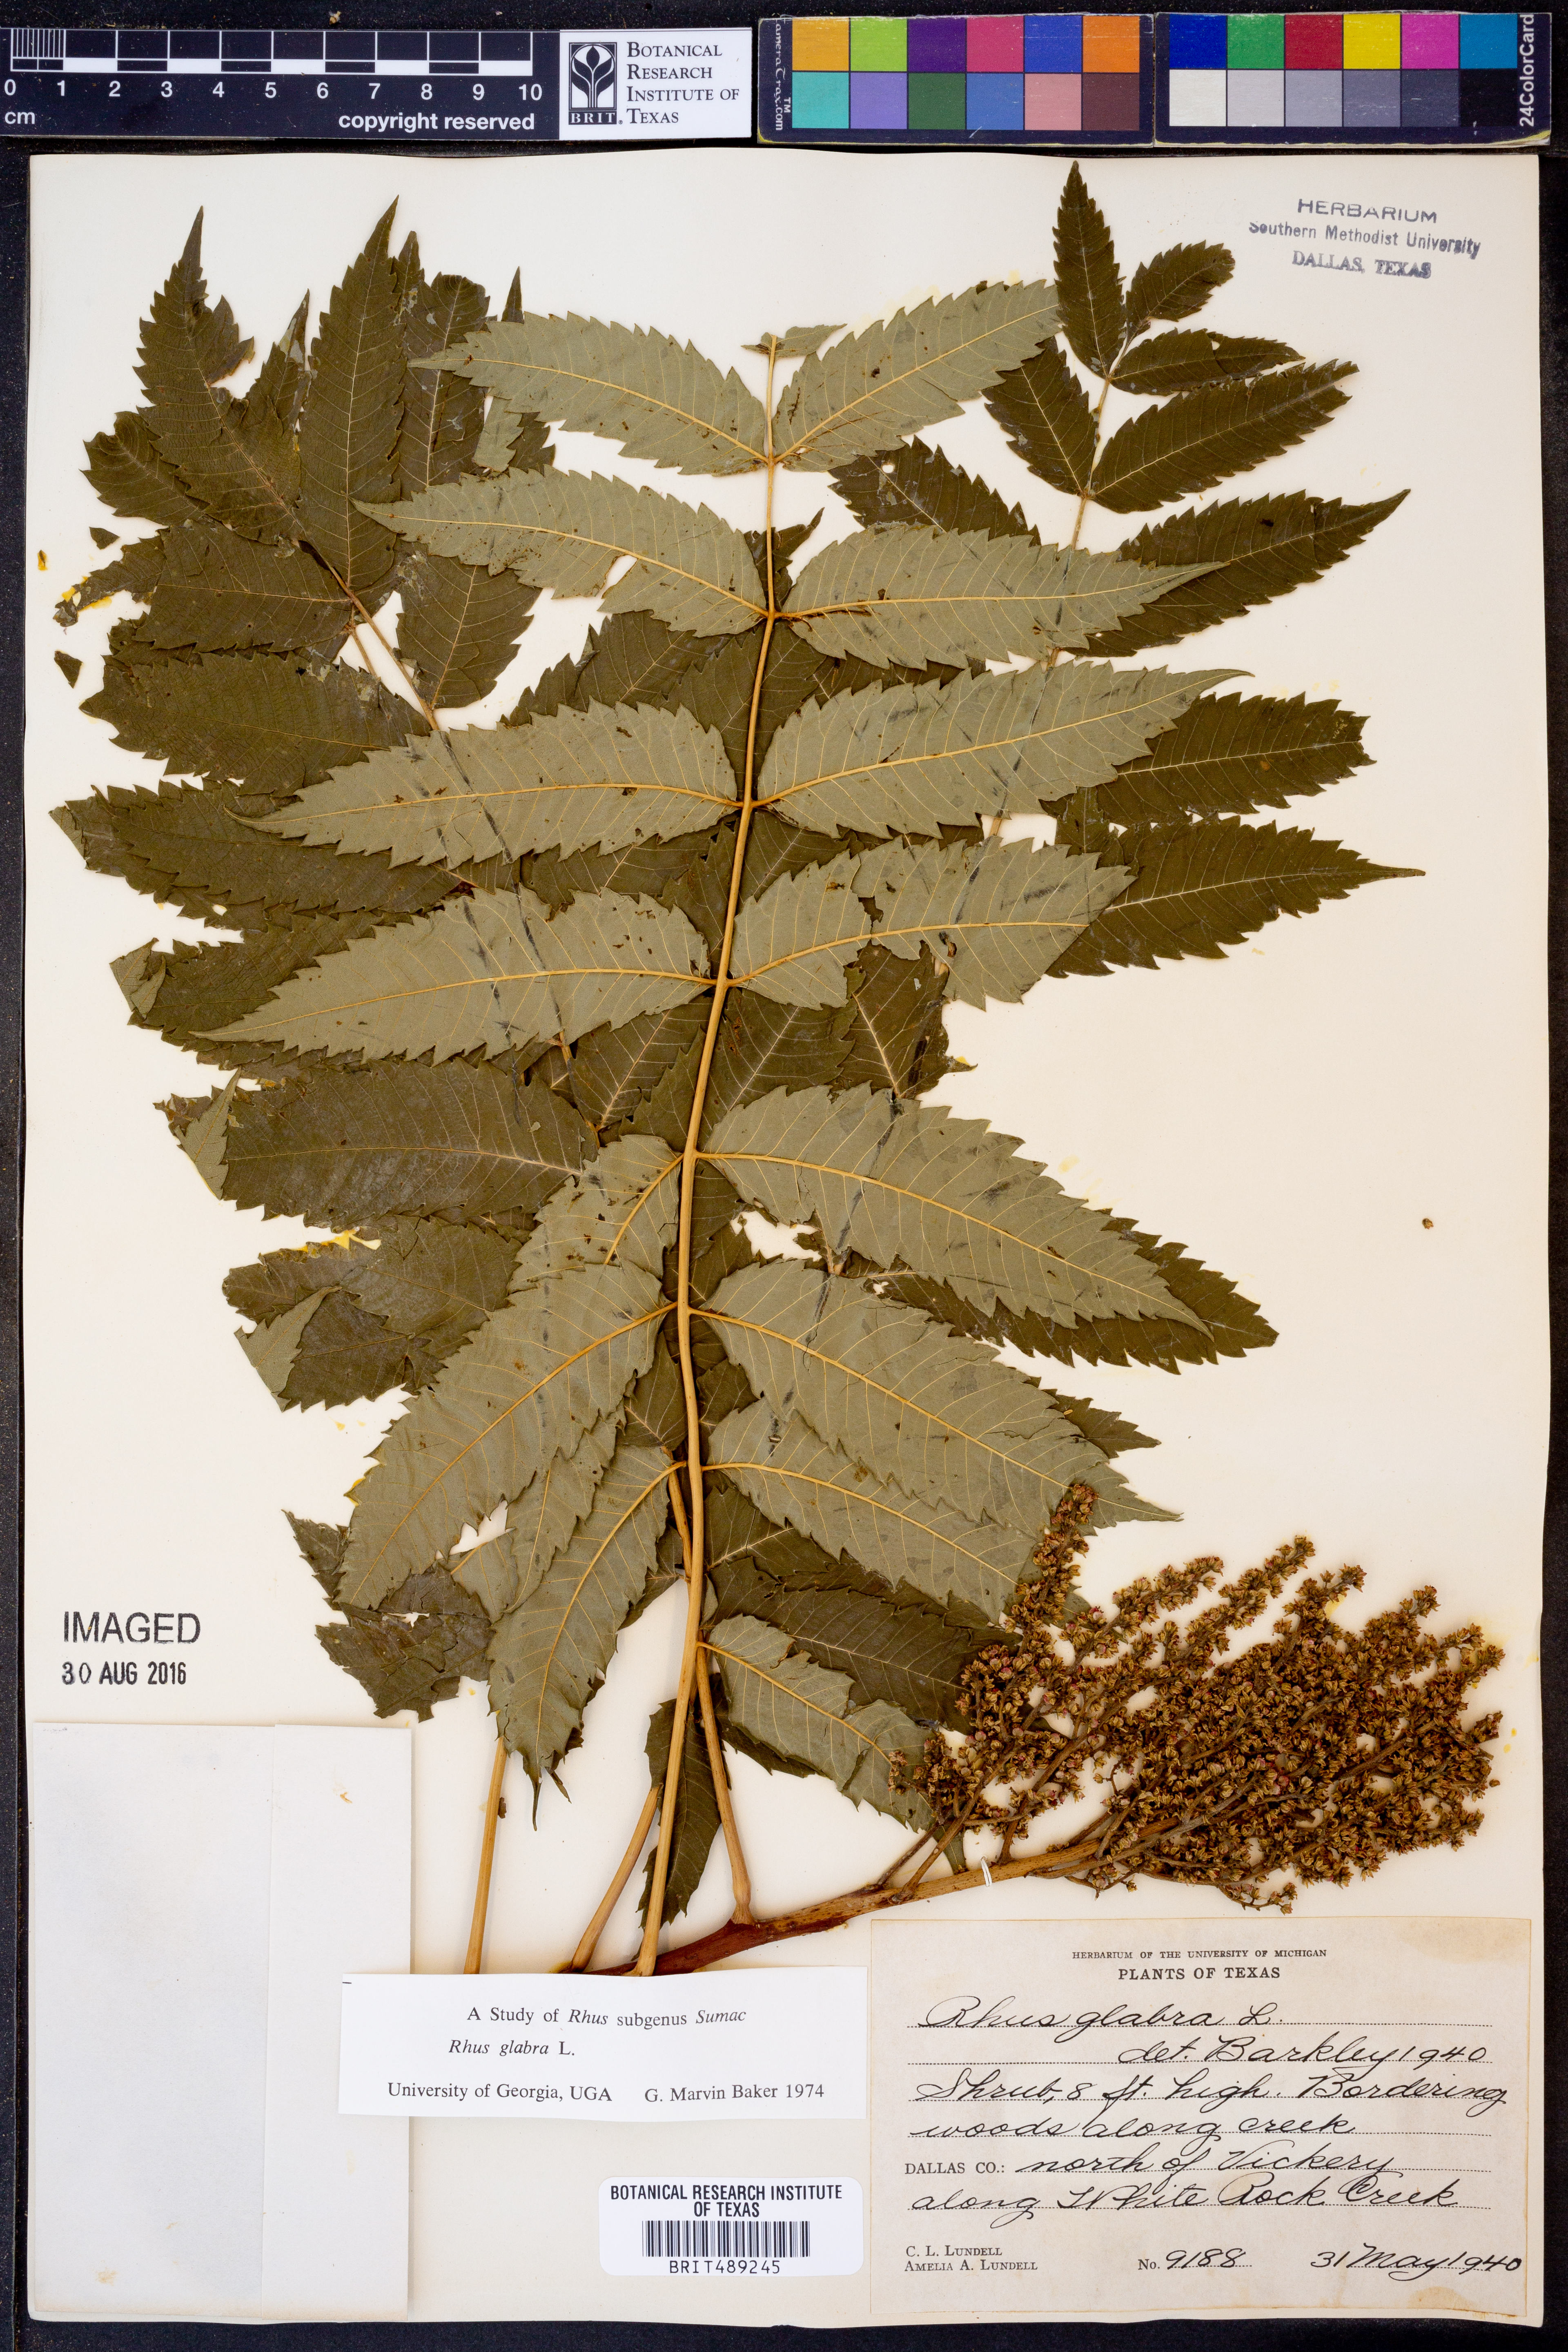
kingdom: Plantae
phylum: Tracheophyta
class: Magnoliopsida
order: Sapindales
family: Anacardiaceae
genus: Rhus
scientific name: Rhus glabra
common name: Scarlet sumac
